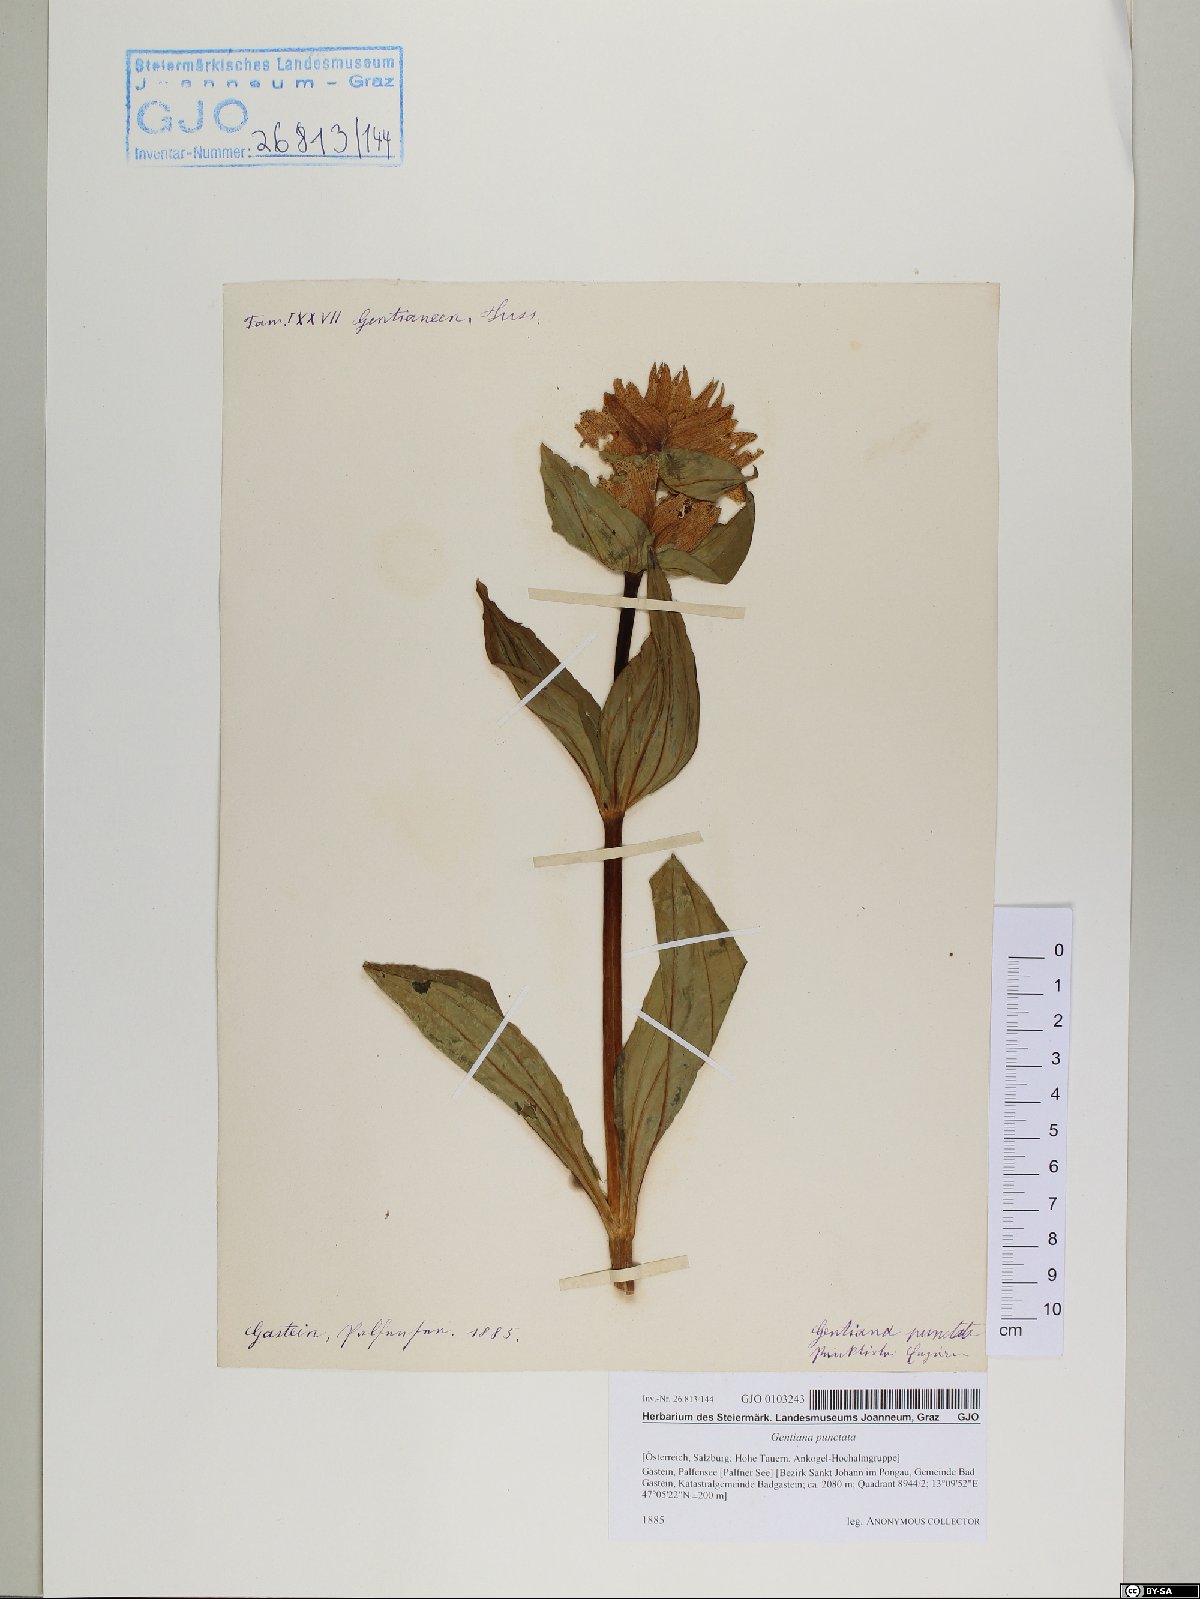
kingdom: Plantae
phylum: Tracheophyta
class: Magnoliopsida
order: Gentianales
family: Gentianaceae
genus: Gentiana
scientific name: Gentiana punctata
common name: Spotted gentian
